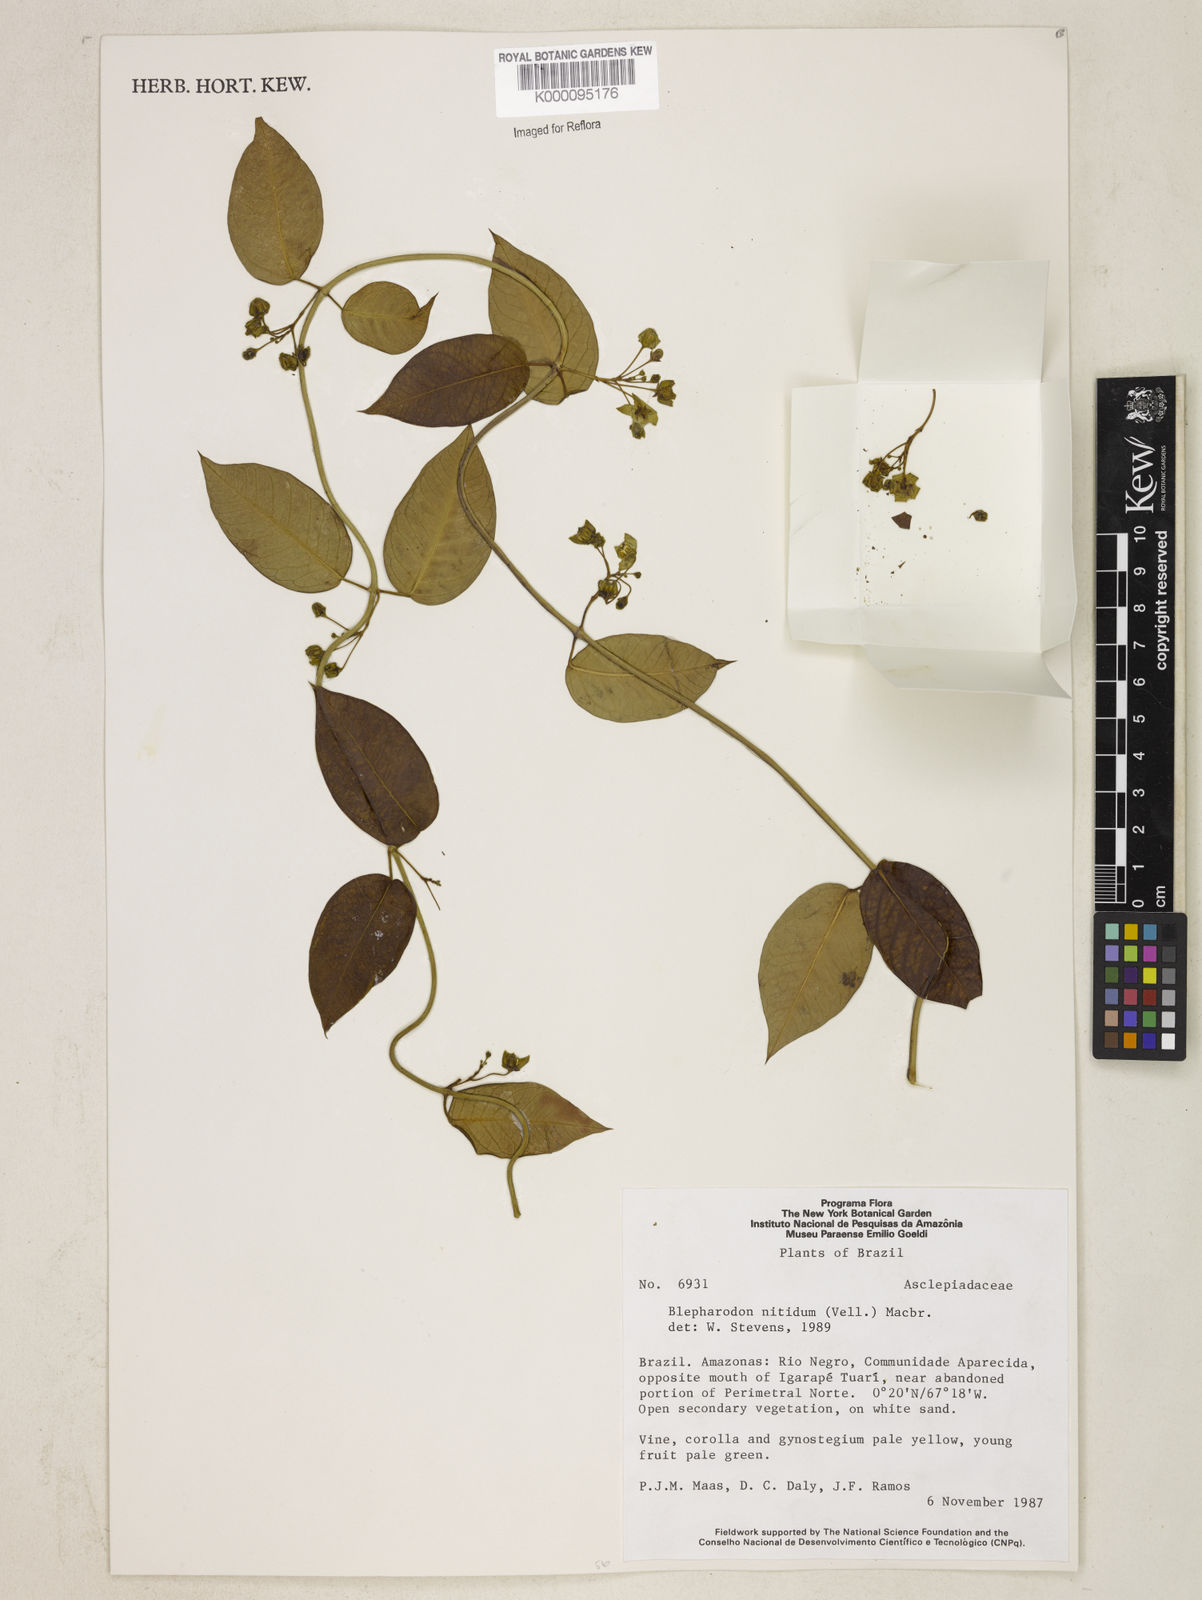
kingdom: Plantae
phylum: Tracheophyta
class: Magnoliopsida
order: Gentianales
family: Apocynaceae
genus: Blepharodon
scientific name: Blepharodon pictum
